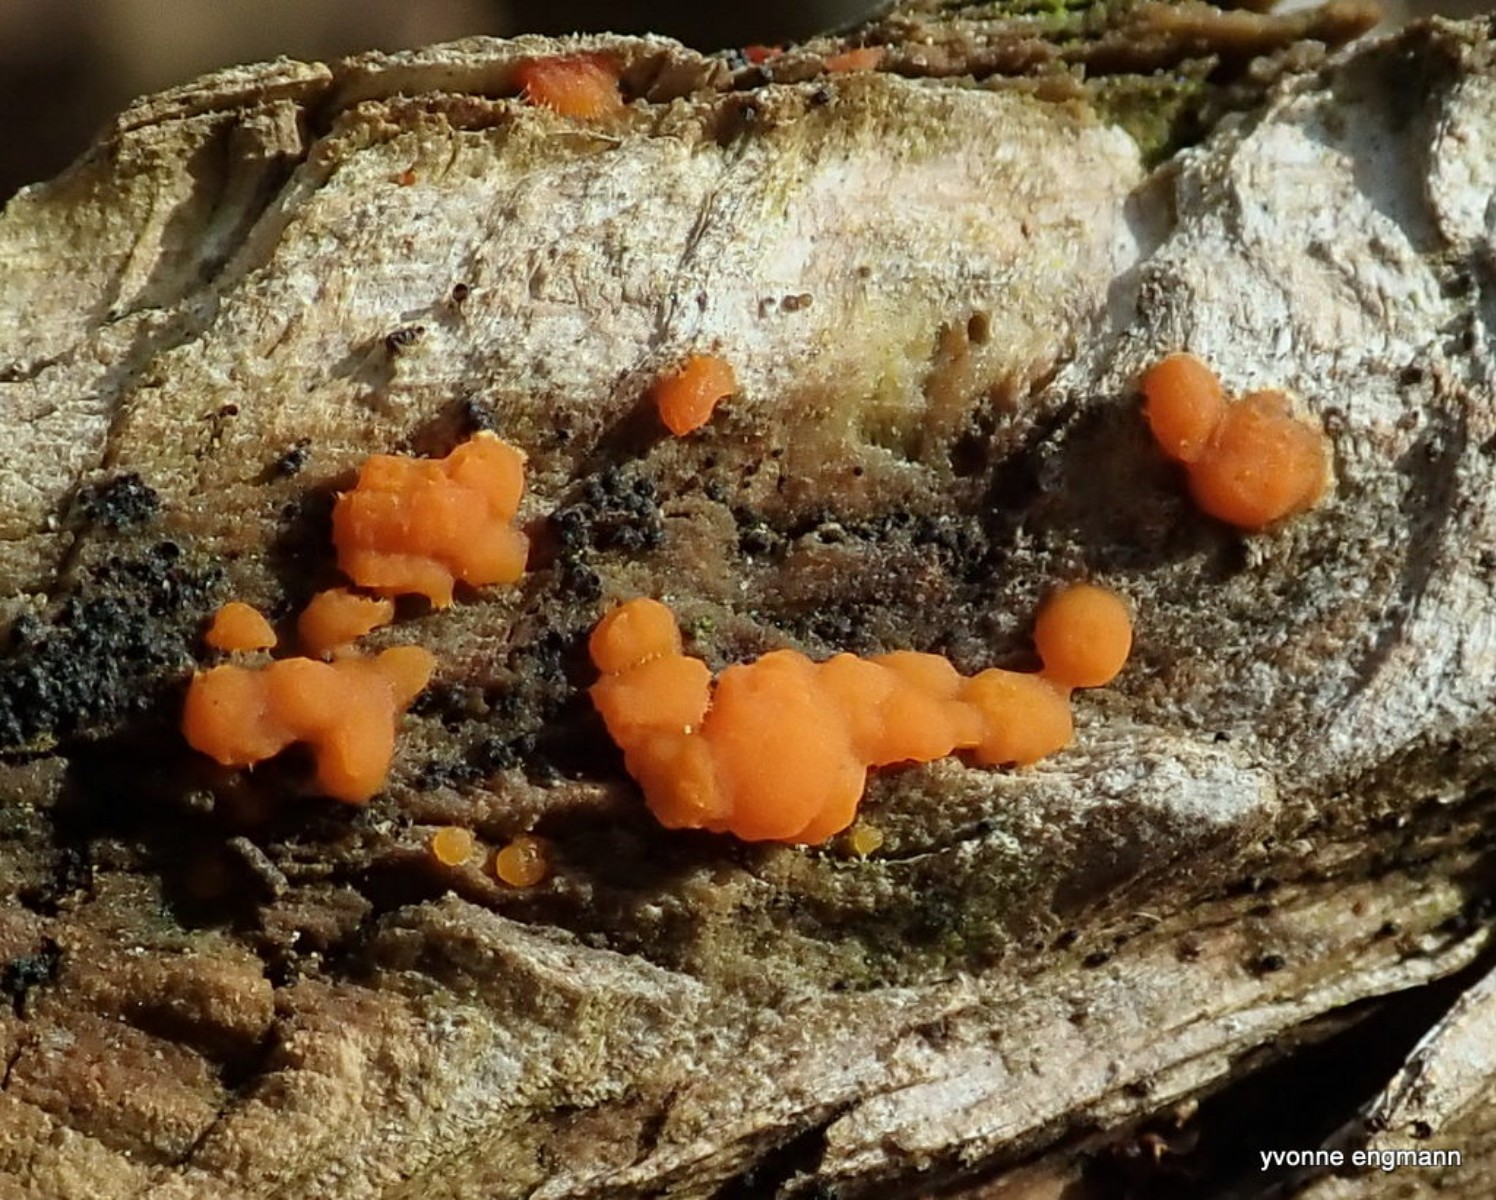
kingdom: Fungi
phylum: Basidiomycota
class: Dacrymycetes
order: Dacrymycetales
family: Dacrymycetaceae
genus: Dacrymyces
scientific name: Dacrymyces stillatus
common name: almindelig tåresvamp
